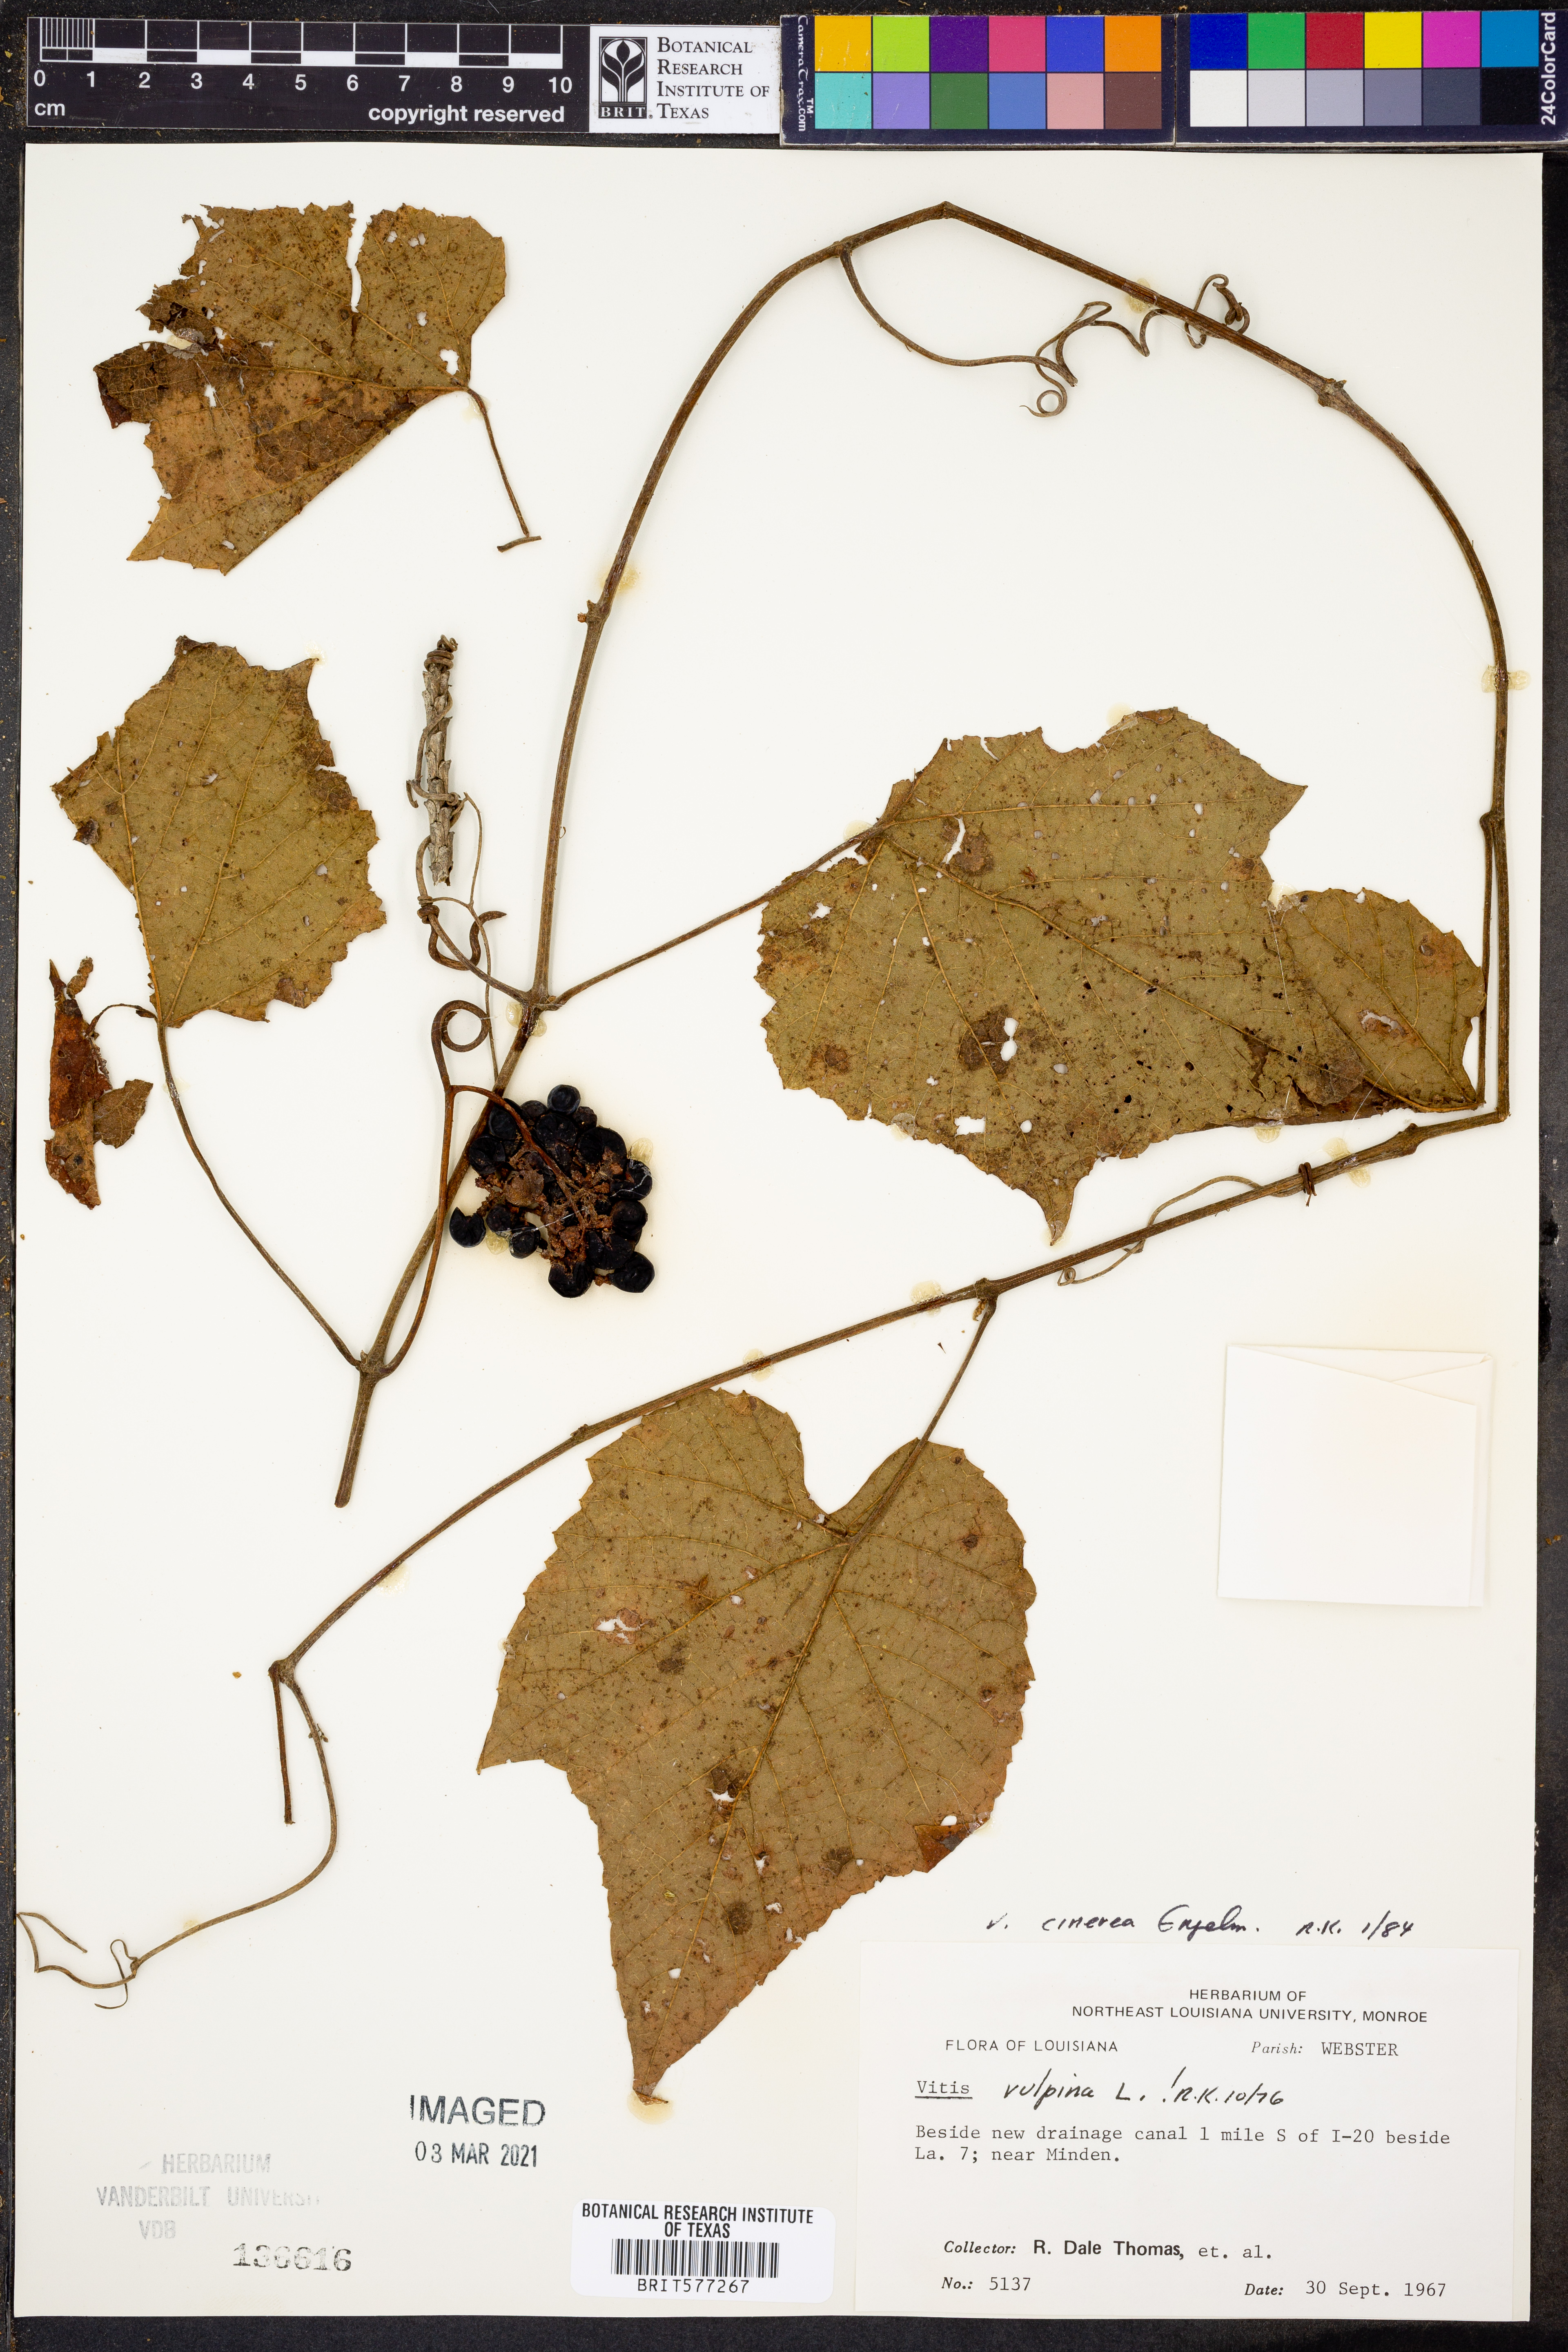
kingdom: Plantae
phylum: Tracheophyta
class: Magnoliopsida
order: Vitales
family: Vitaceae
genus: Vitis
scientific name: Vitis cinerea
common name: Ashy grape
